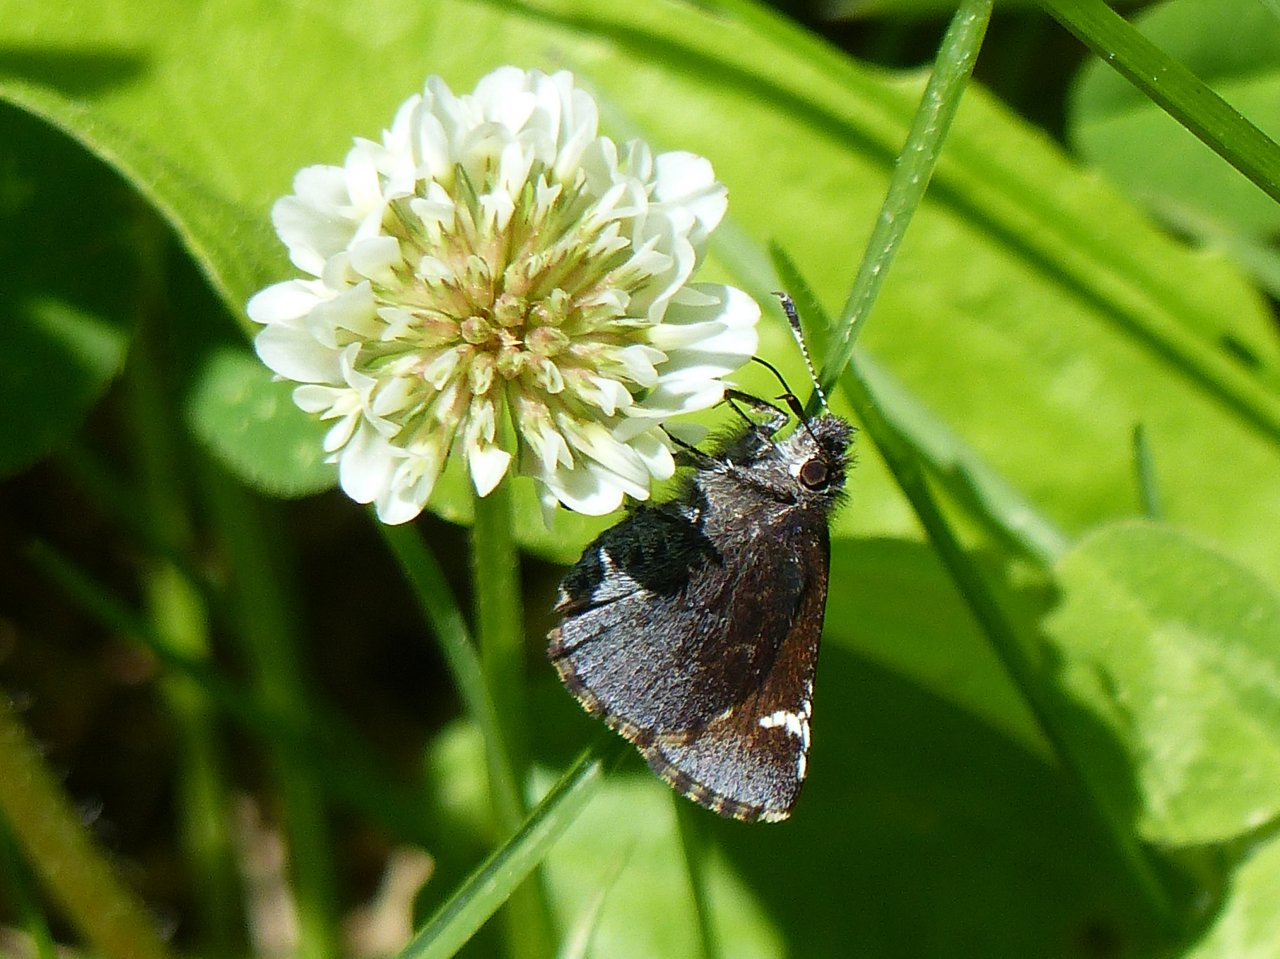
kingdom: Animalia
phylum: Arthropoda
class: Insecta
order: Lepidoptera
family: Hesperiidae
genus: Mastor
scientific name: Mastor vialis
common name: Common Roadside-Skipper
